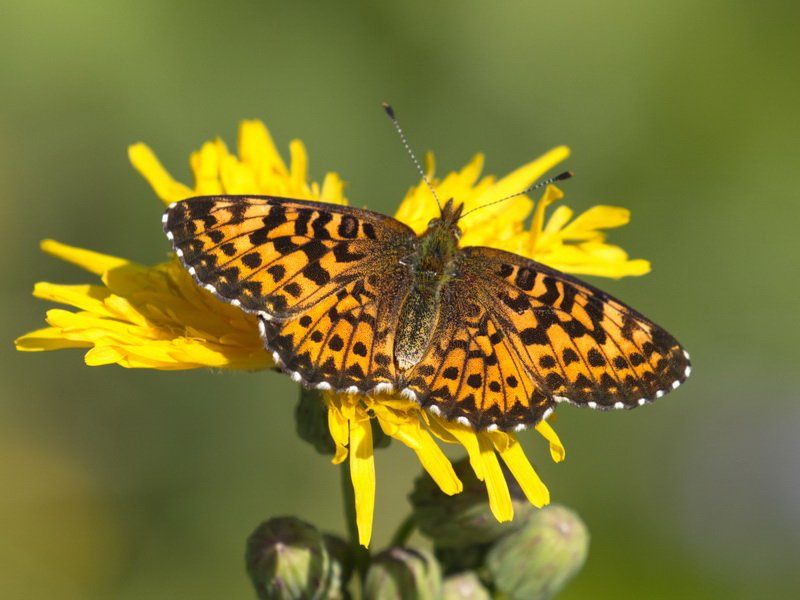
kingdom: Animalia
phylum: Arthropoda
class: Insecta
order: Lepidoptera
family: Nymphalidae
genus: Boloria
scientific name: Boloria chariclea
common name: Arctic Fritillary
